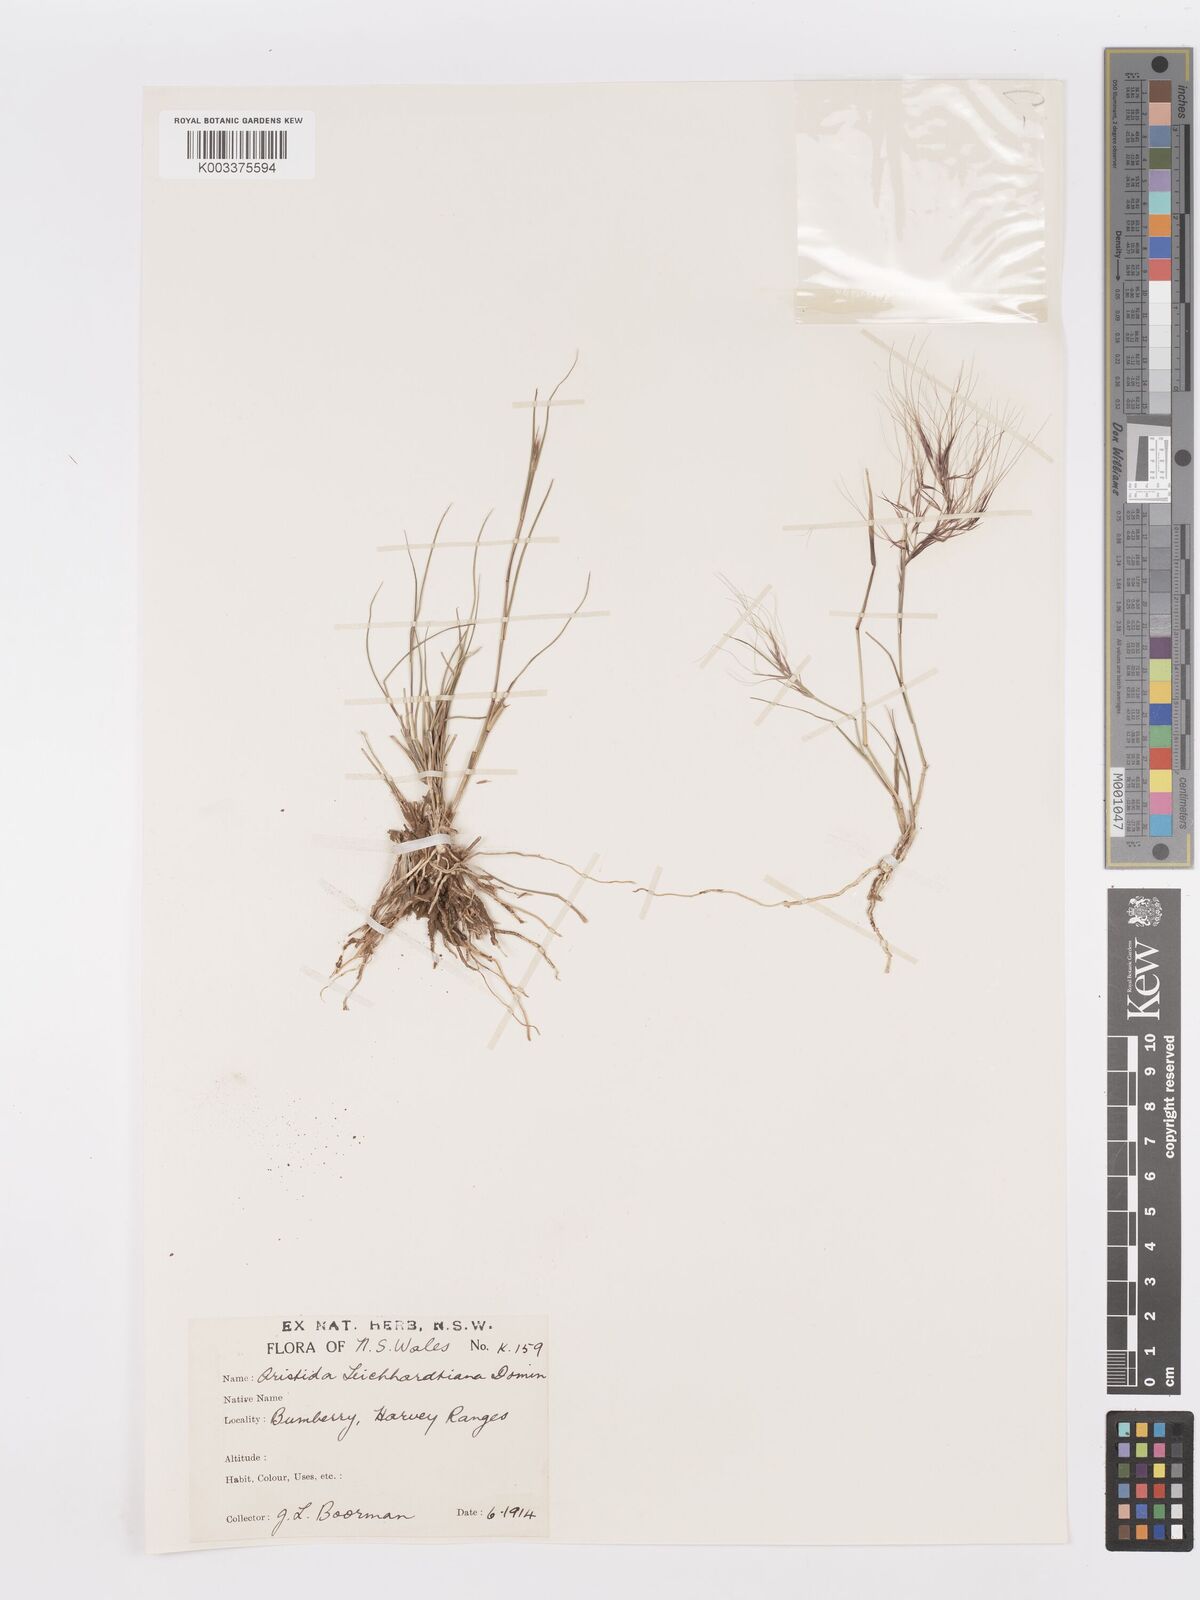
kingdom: Plantae
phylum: Tracheophyta
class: Liliopsida
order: Poales
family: Poaceae
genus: Aristida
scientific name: Aristida leichhardtiana
